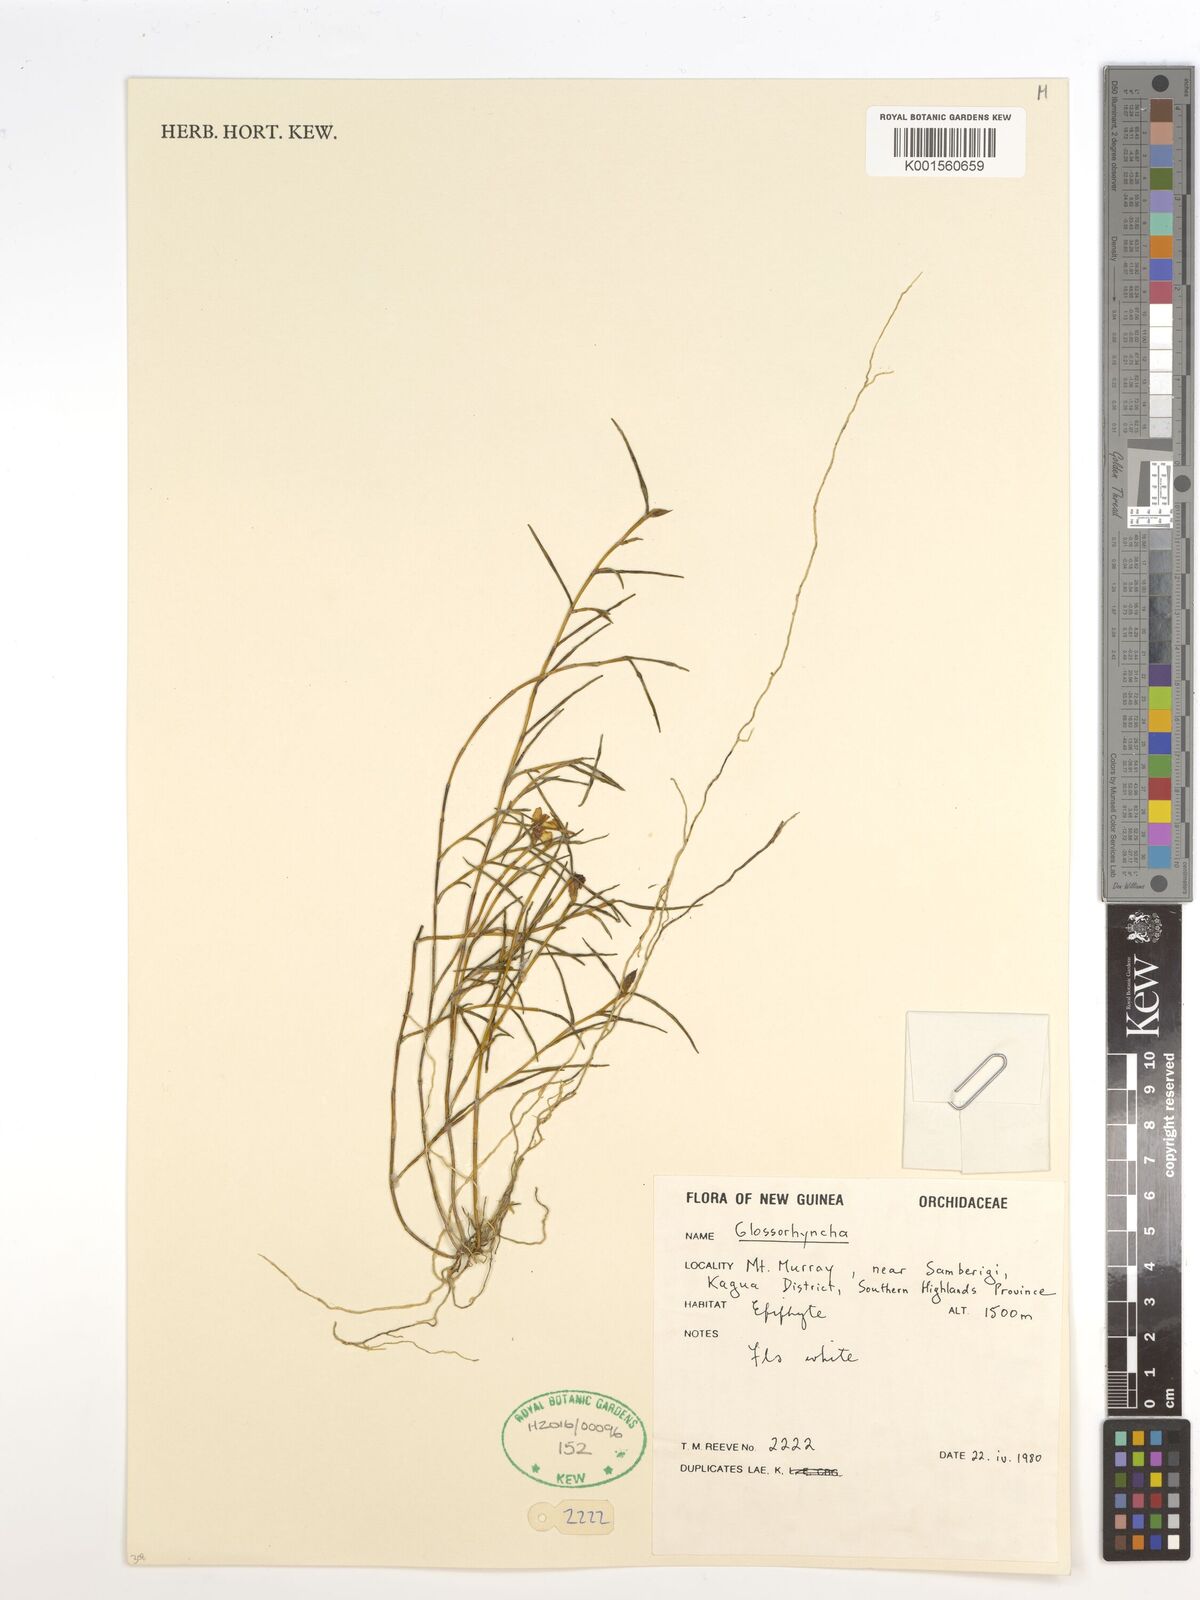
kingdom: Plantae
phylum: Tracheophyta
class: Liliopsida
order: Asparagales
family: Orchidaceae
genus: Glomera
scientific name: Glomera
